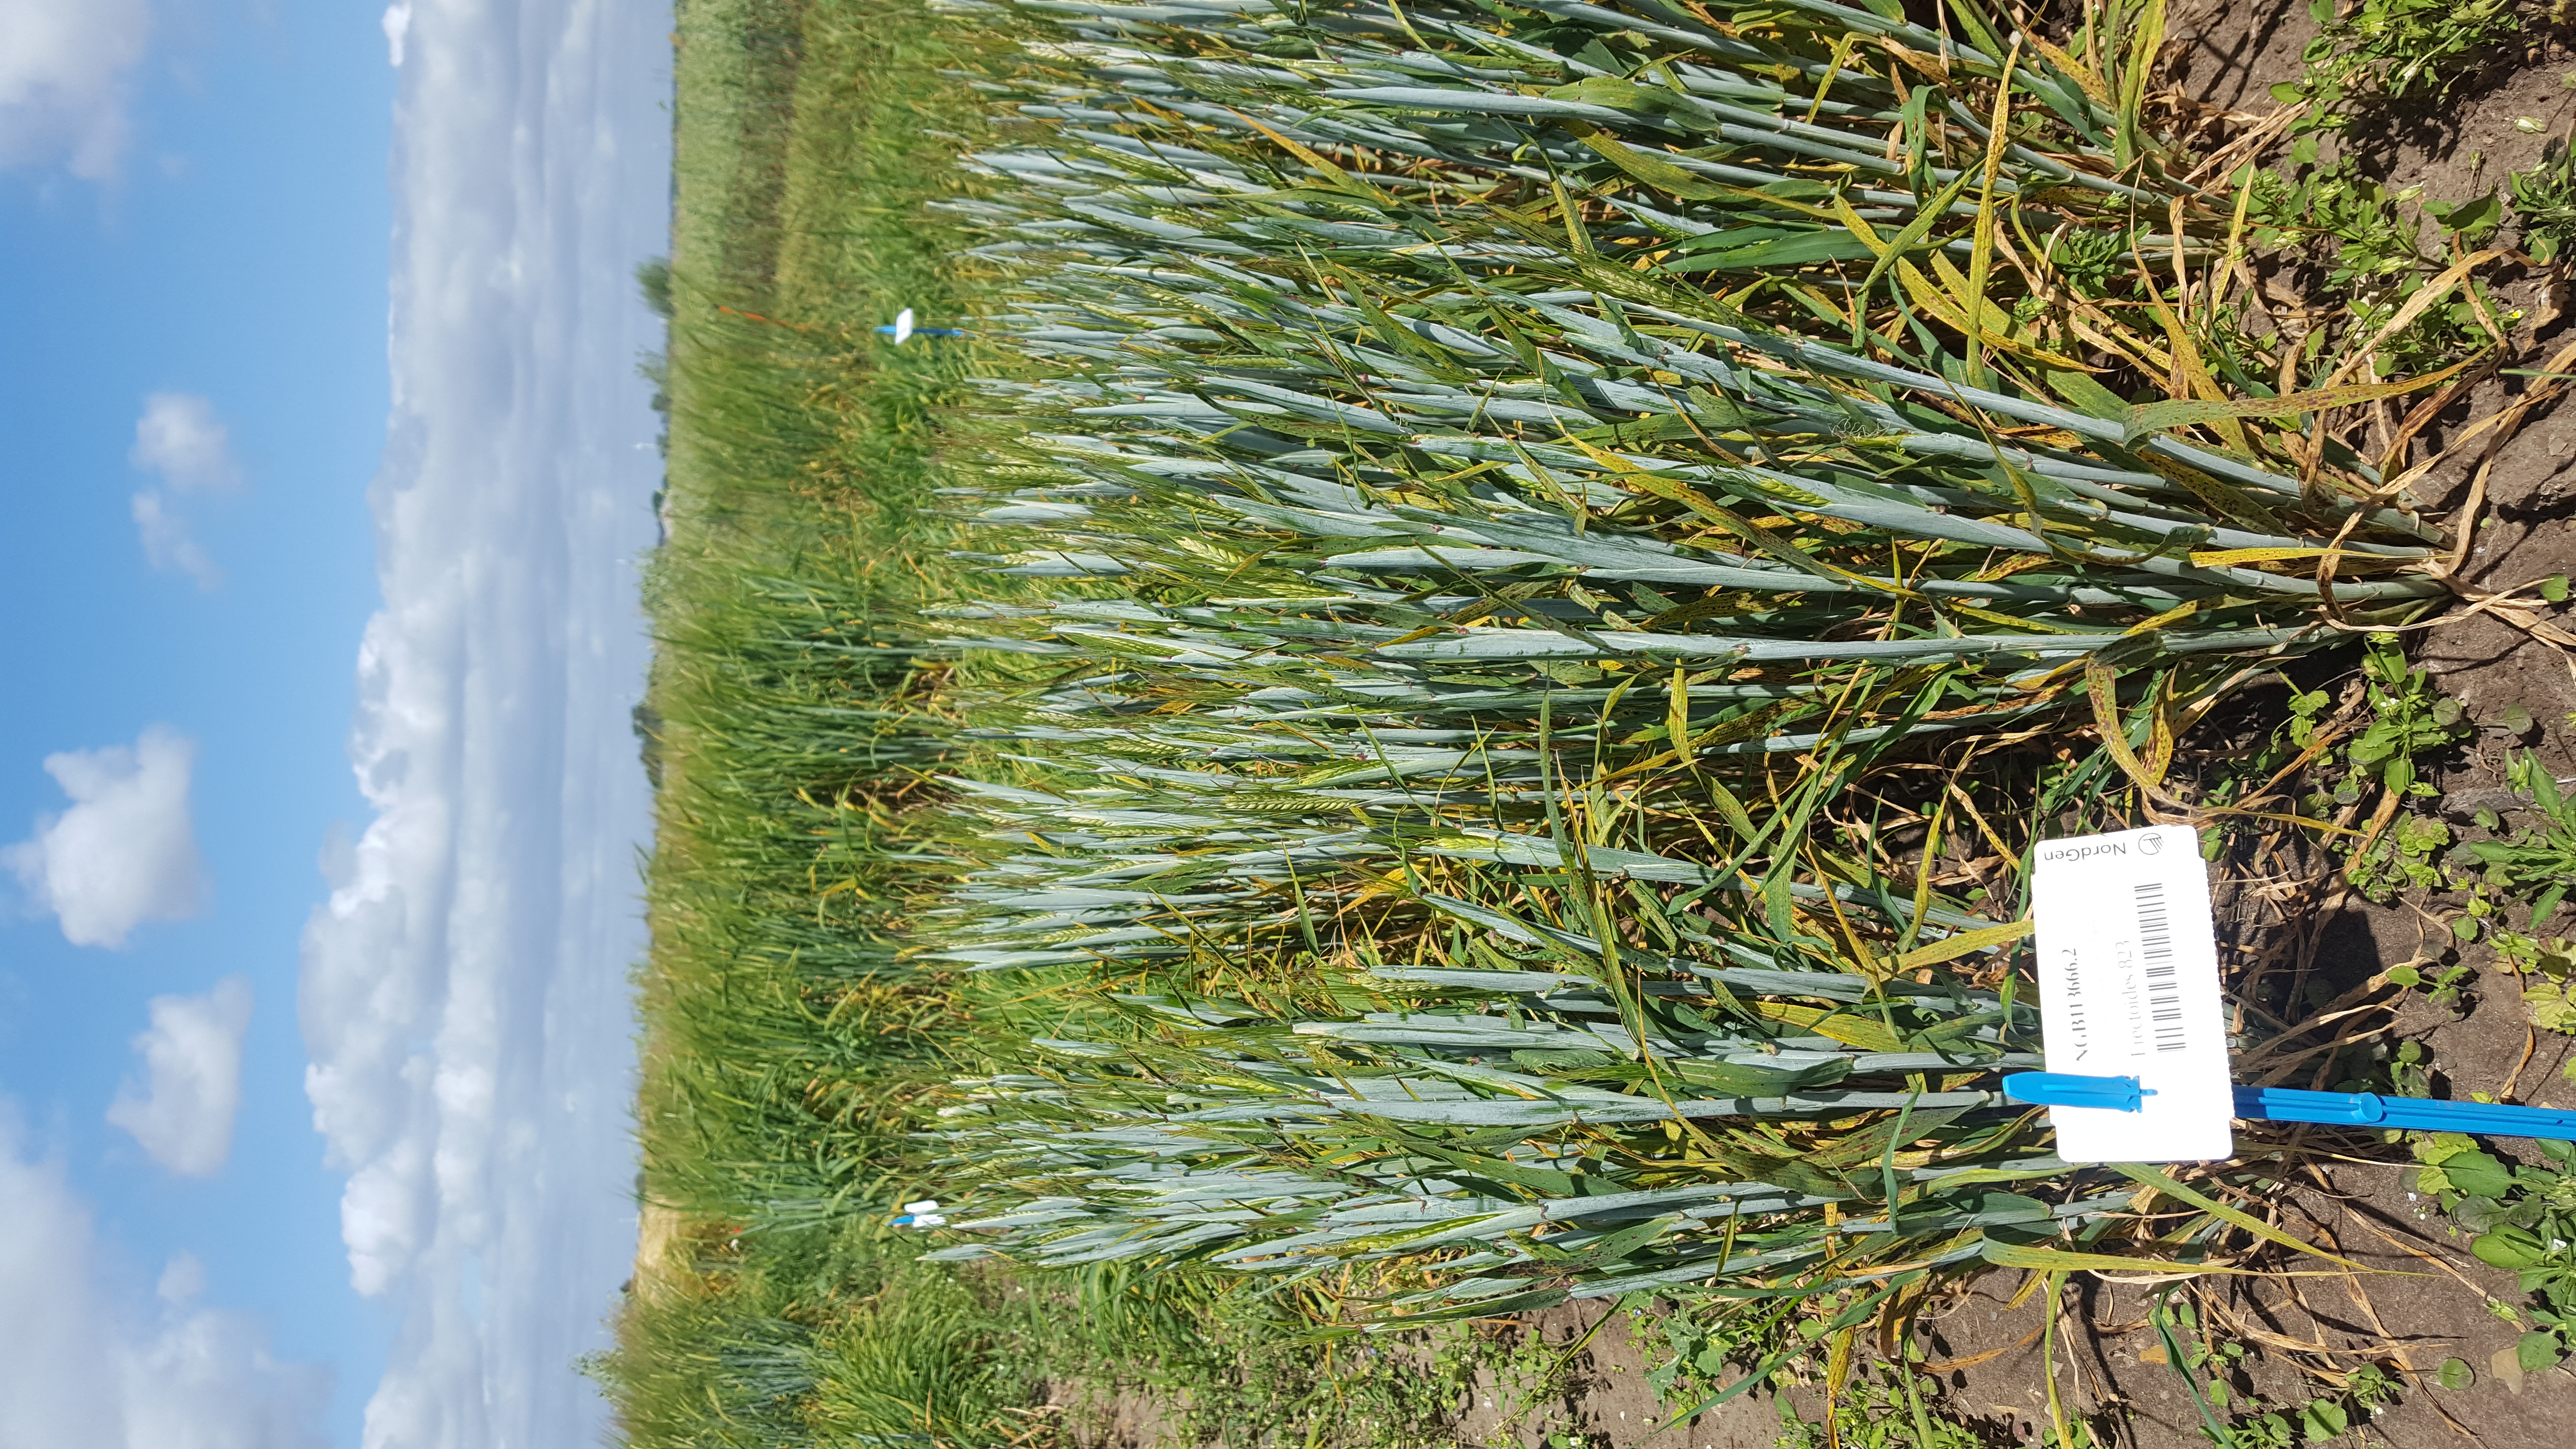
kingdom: Plantae
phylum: Tracheophyta
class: Liliopsida
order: Poales
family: Poaceae
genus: Hordeum
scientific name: Hordeum vulgare
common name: Common barley
